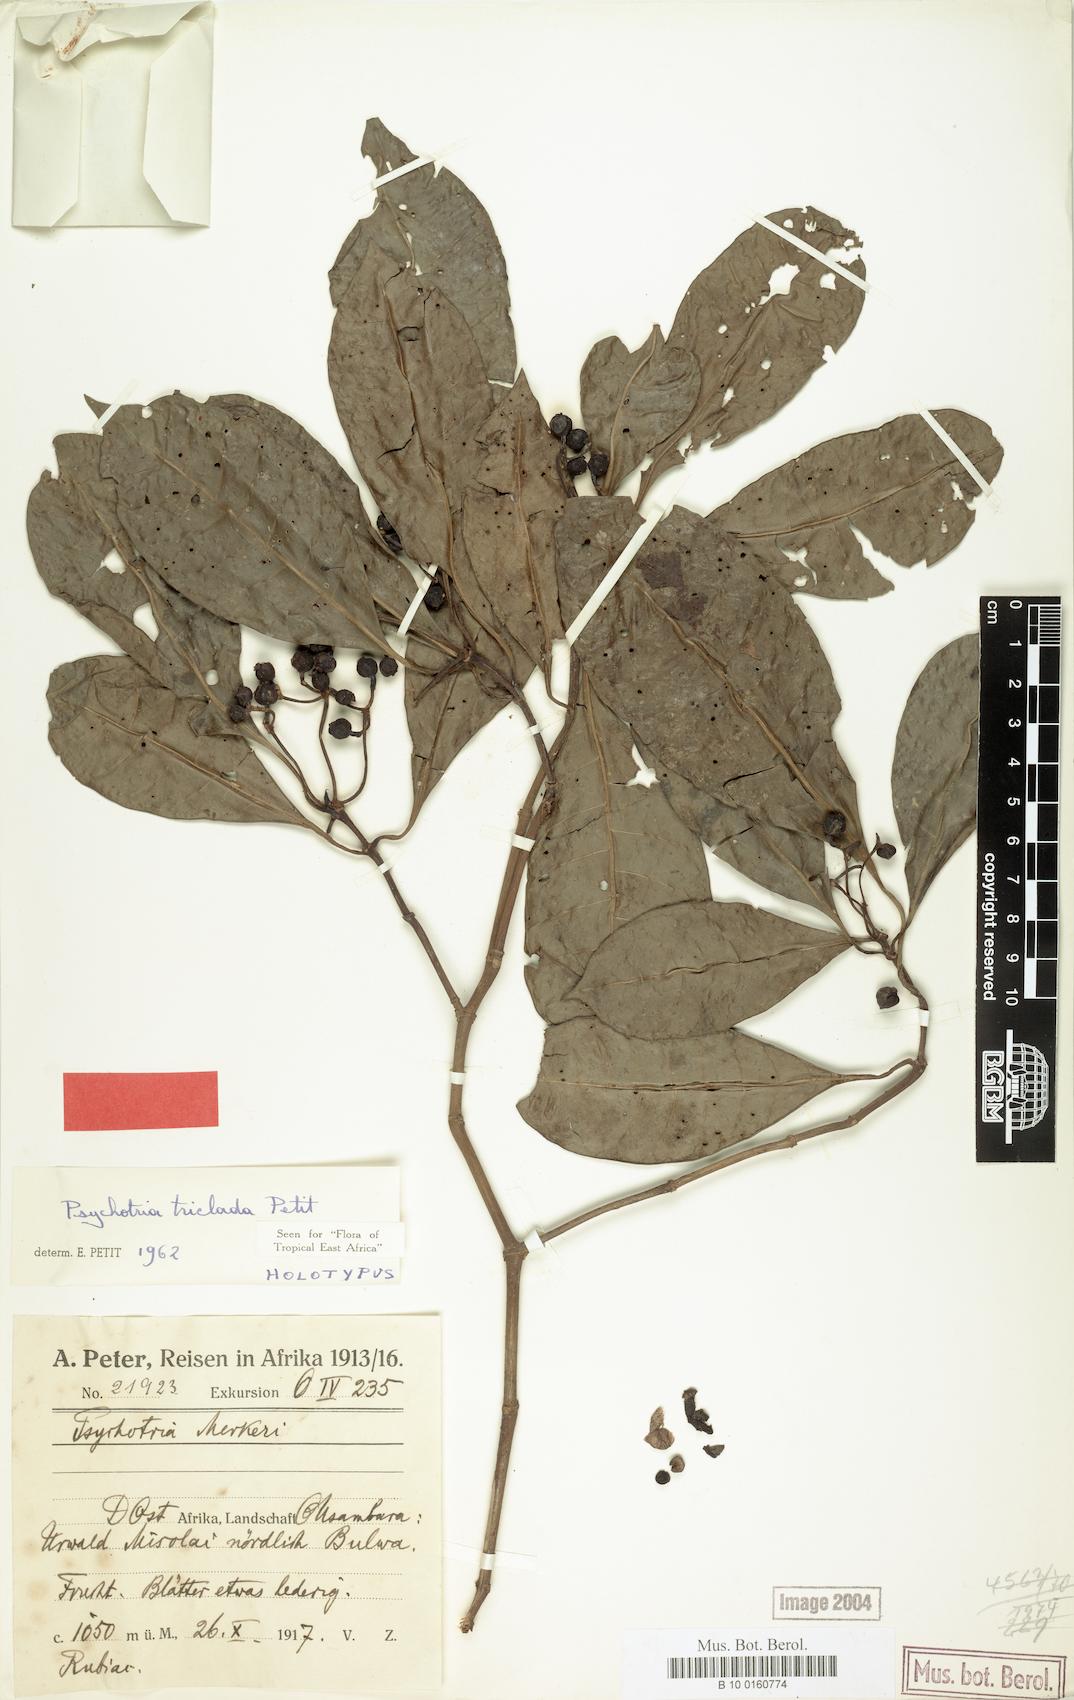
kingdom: Plantae
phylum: Tracheophyta
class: Magnoliopsida
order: Gentianales
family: Rubiaceae
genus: Psychotria
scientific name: Psychotria triclada
